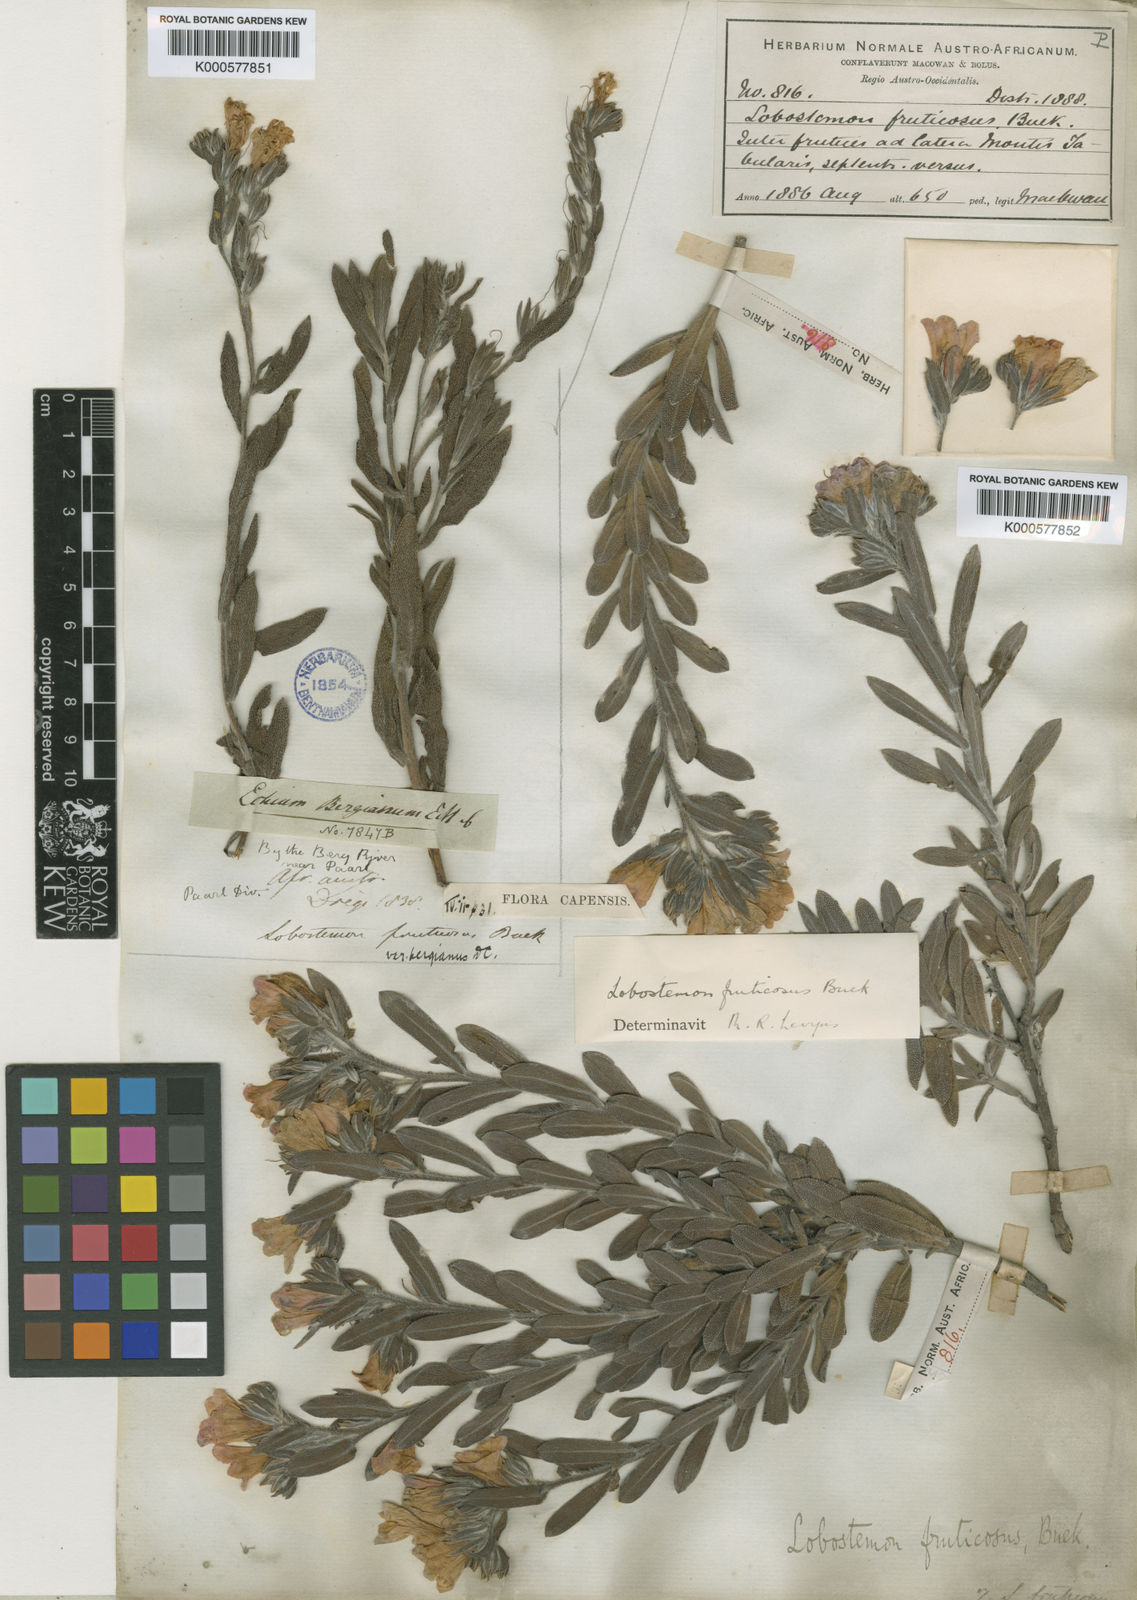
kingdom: Plantae
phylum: Tracheophyta
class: Magnoliopsida
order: Boraginales
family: Boraginaceae
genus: Lobostemon
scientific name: Lobostemon fruticosus
